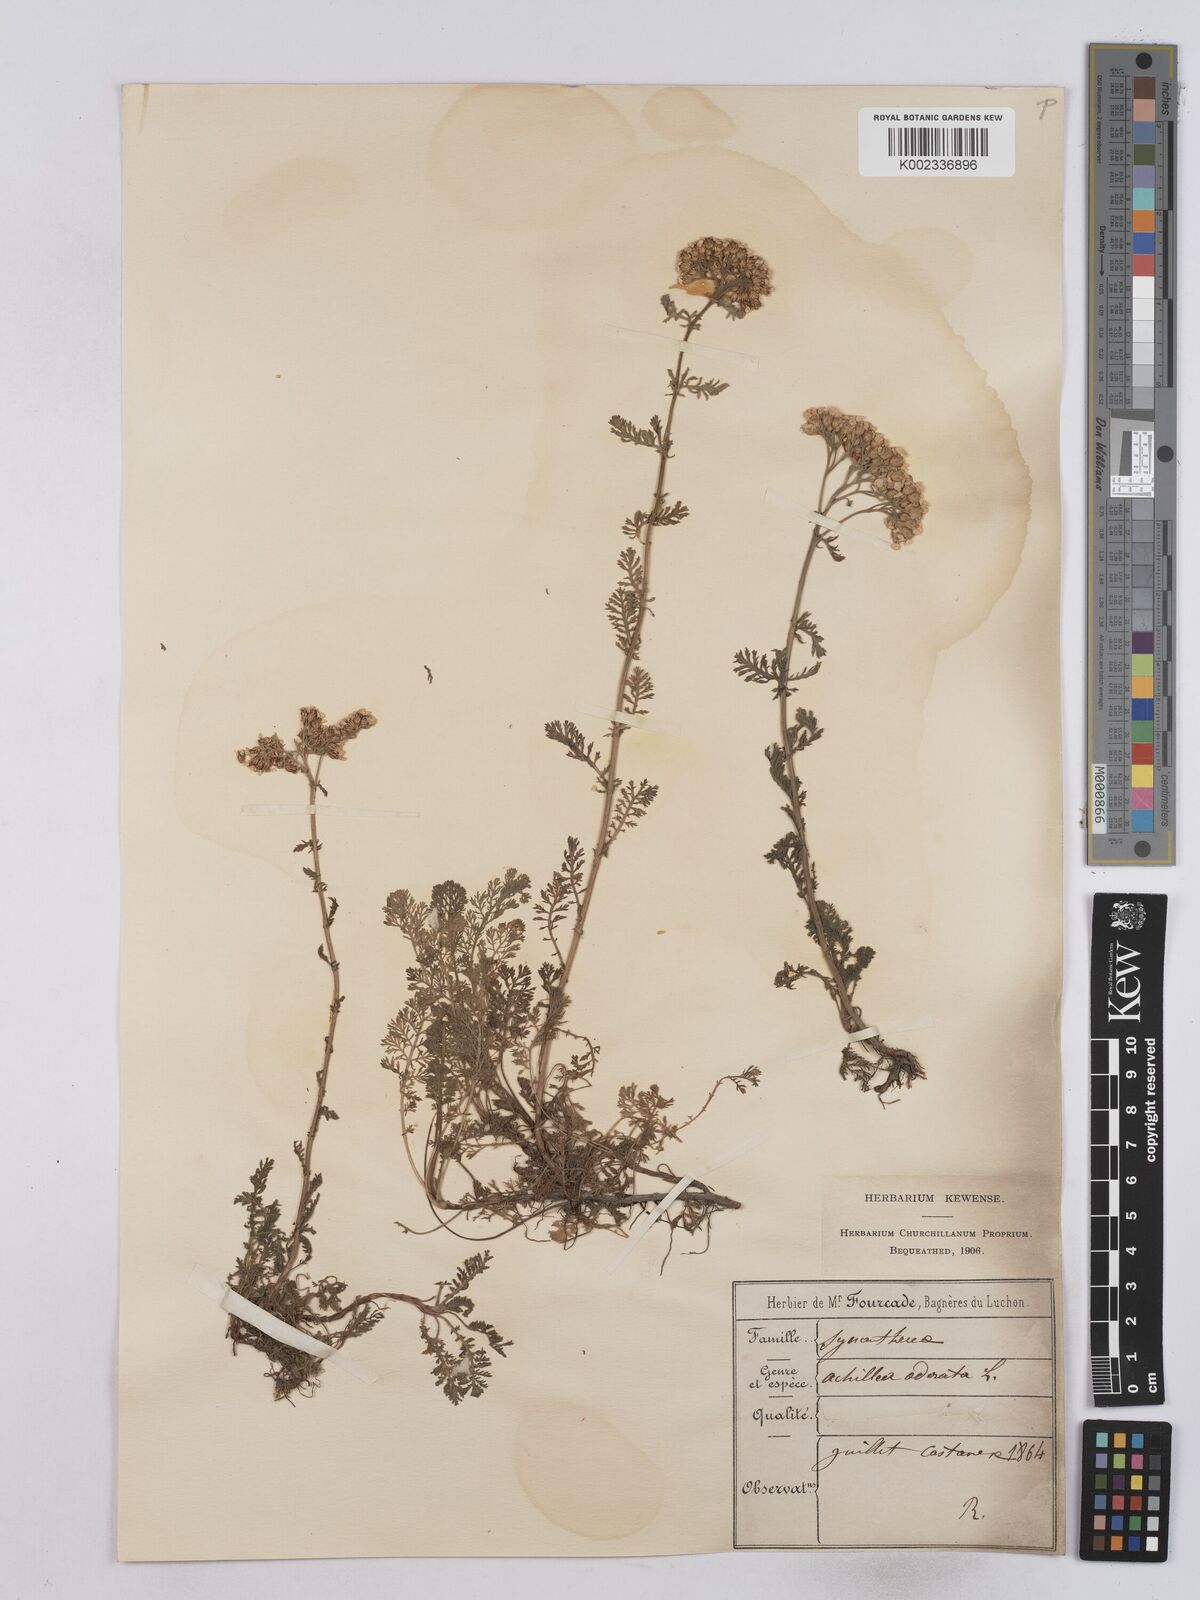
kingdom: Plantae
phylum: Tracheophyta
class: Magnoliopsida
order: Asterales
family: Asteraceae
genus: Achillea
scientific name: Achillea odorata
